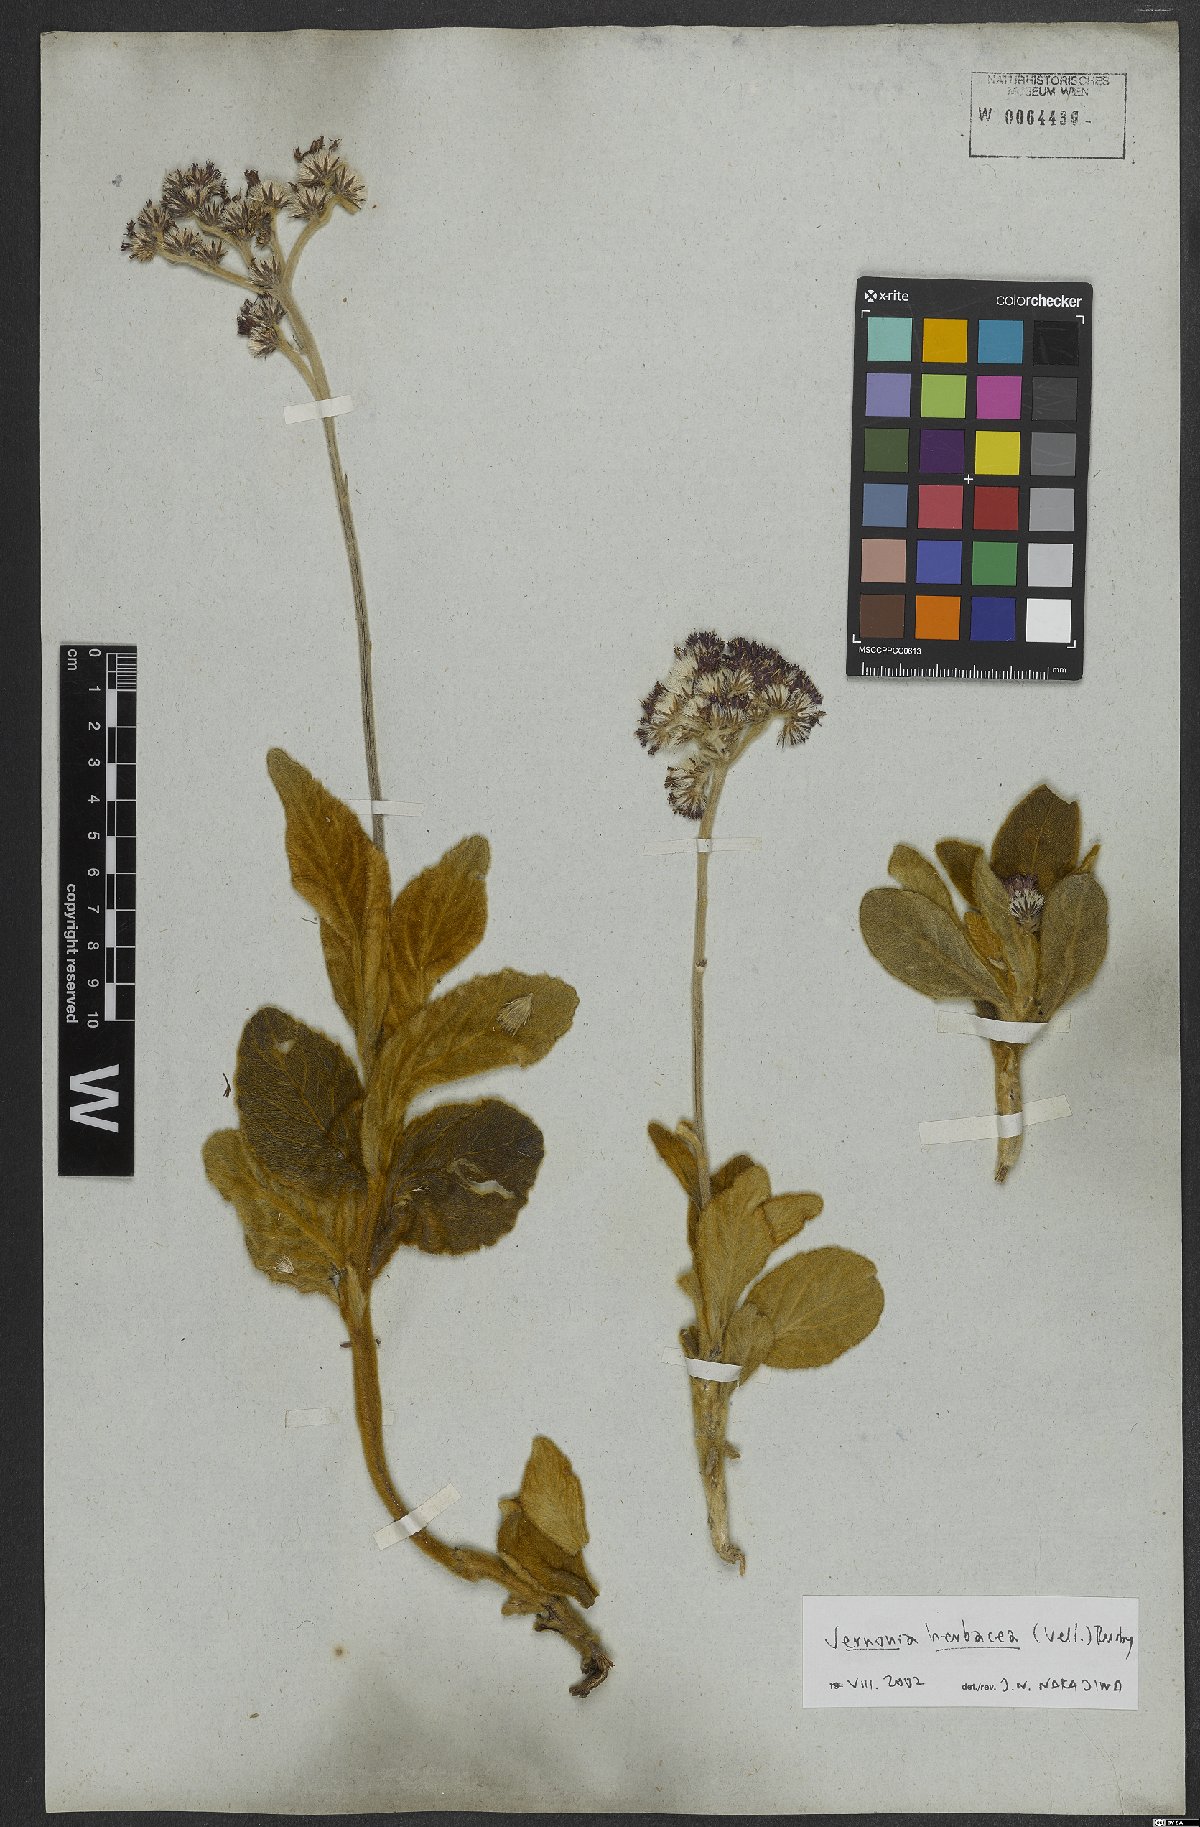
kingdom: Plantae
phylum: Tracheophyta
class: Magnoliopsida
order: Asterales
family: Asteraceae
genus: Chrysolaena
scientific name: Chrysolaena obovata
